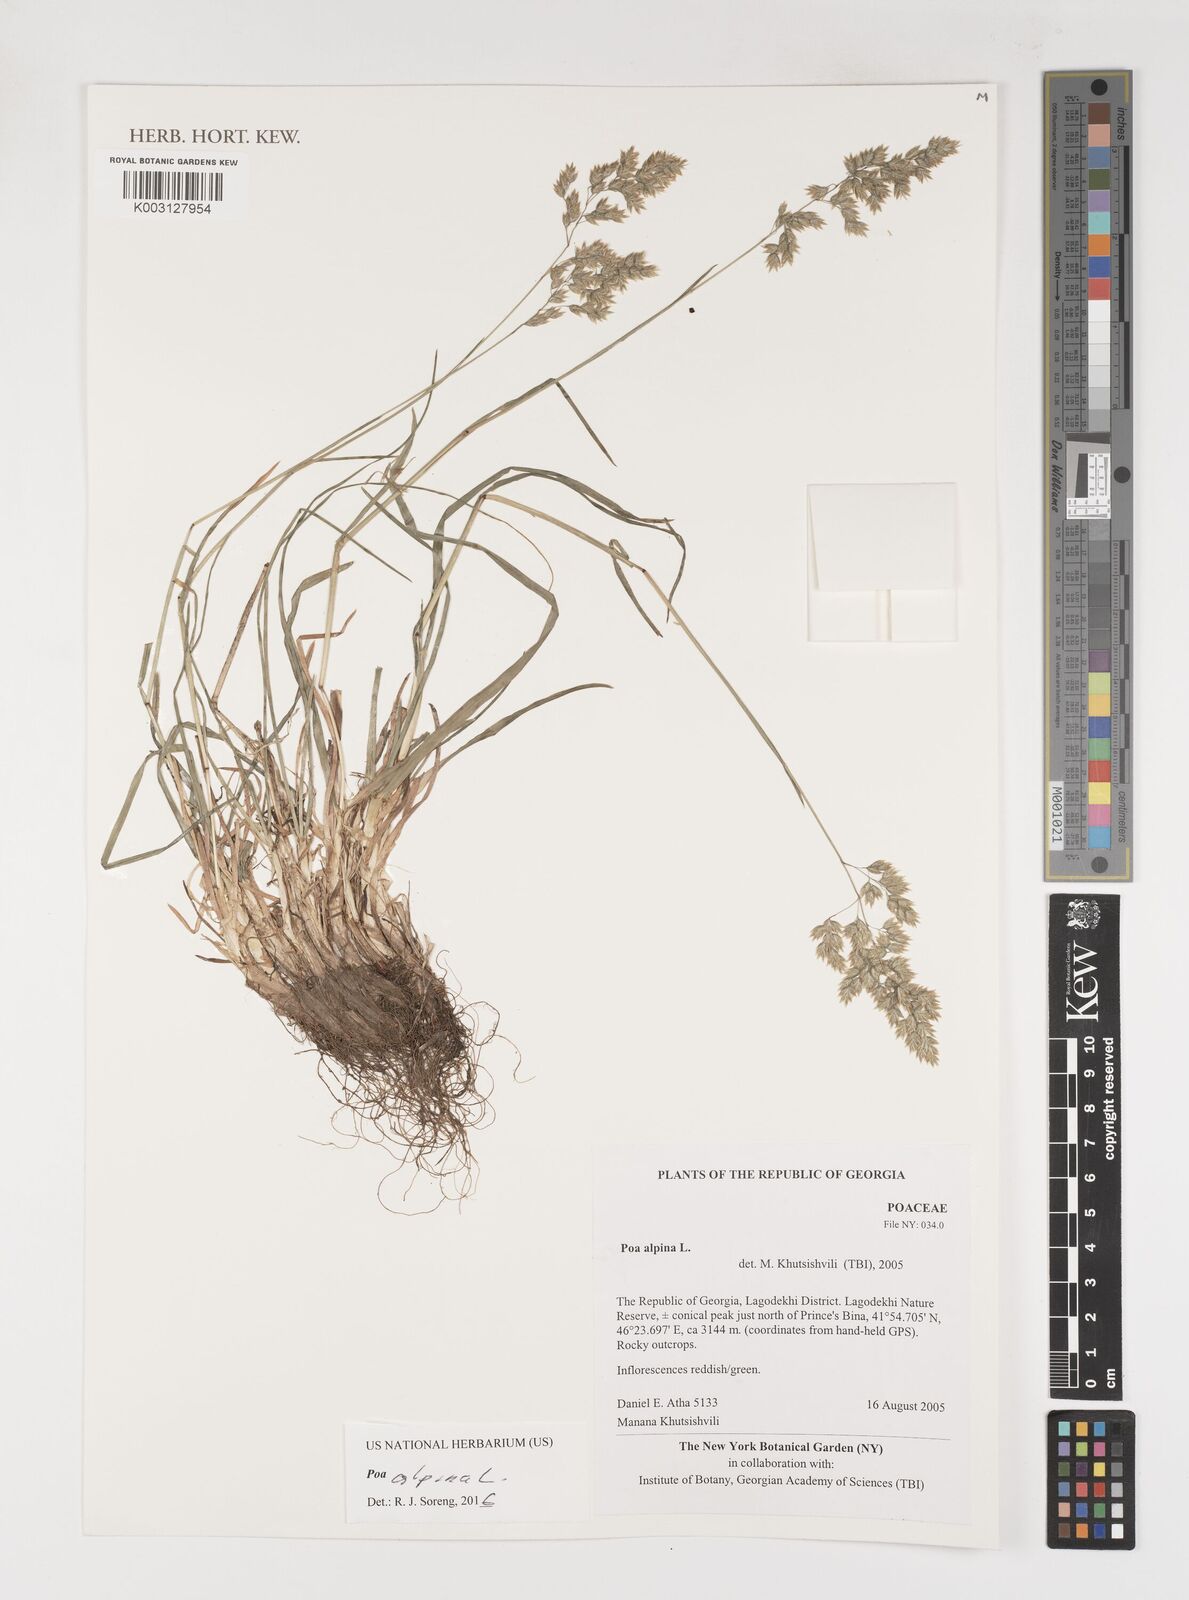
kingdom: Plantae
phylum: Tracheophyta
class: Liliopsida
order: Poales
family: Poaceae
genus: Poa
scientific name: Poa alpina
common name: Alpine bluegrass
